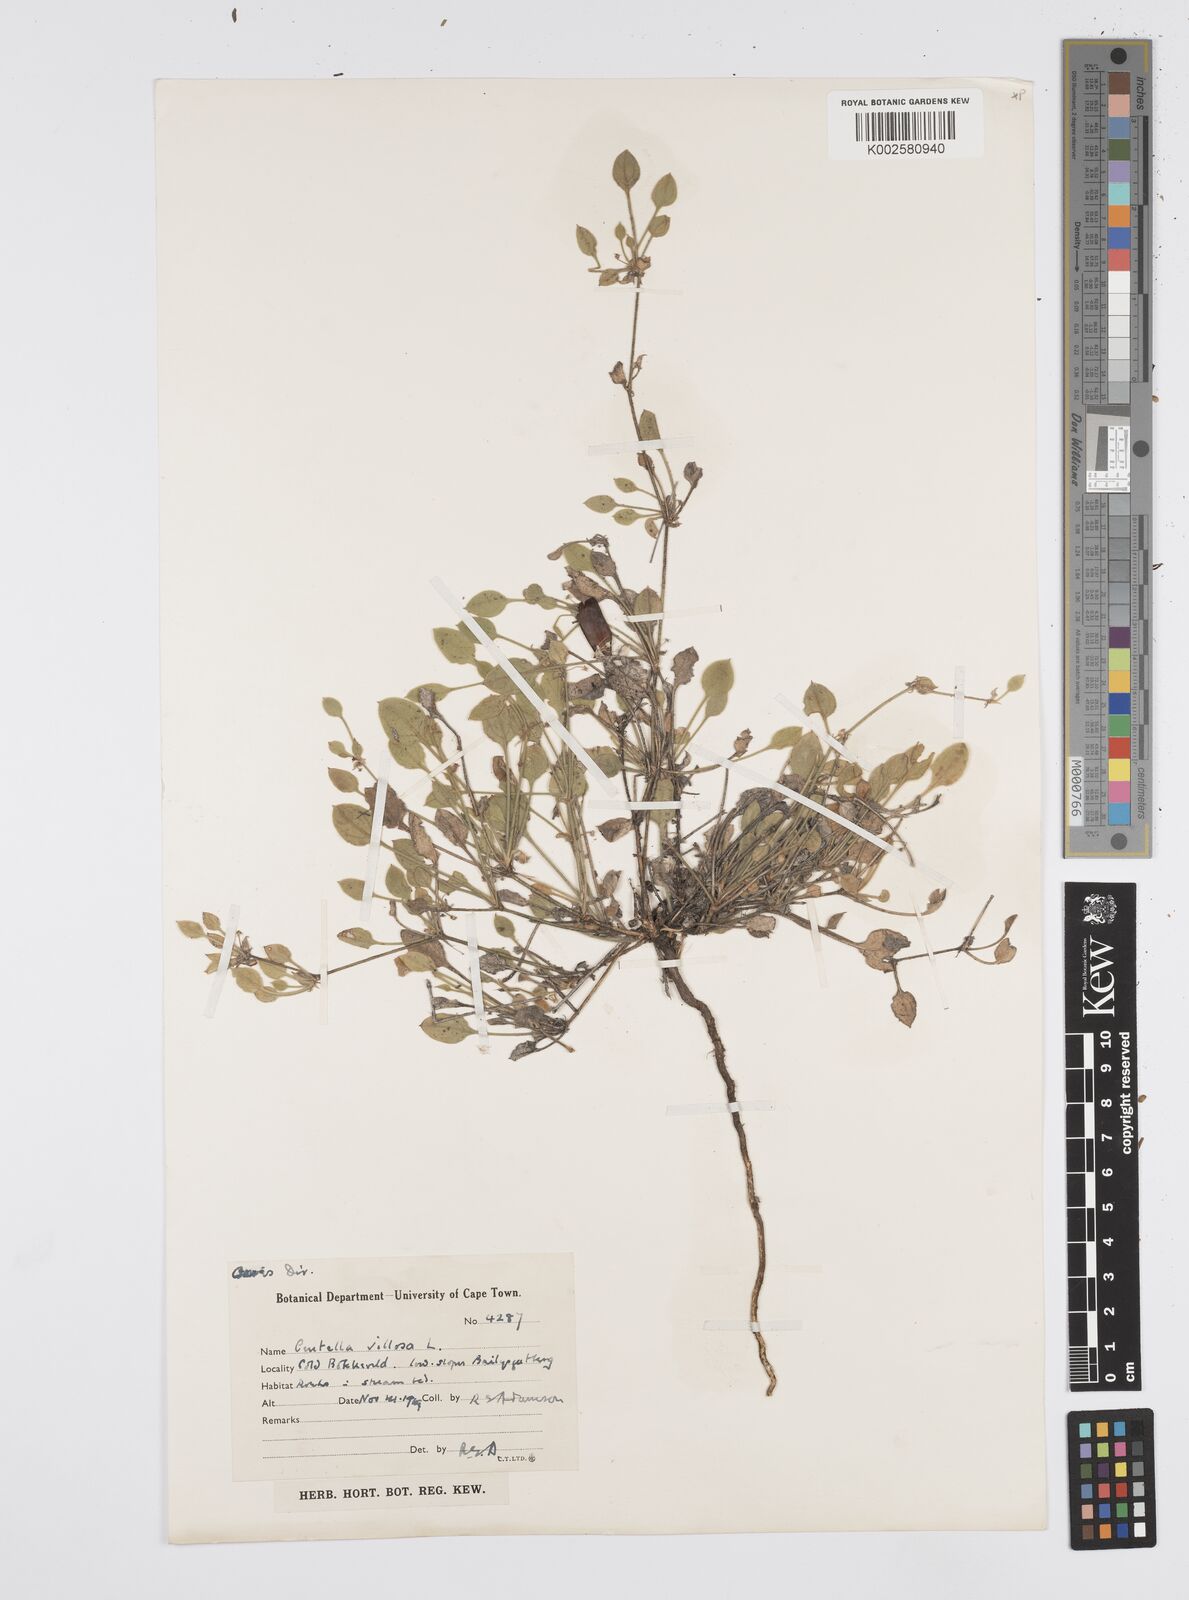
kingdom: Plantae
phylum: Tracheophyta
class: Magnoliopsida
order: Apiales
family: Apiaceae
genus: Centella
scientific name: Centella villosa
